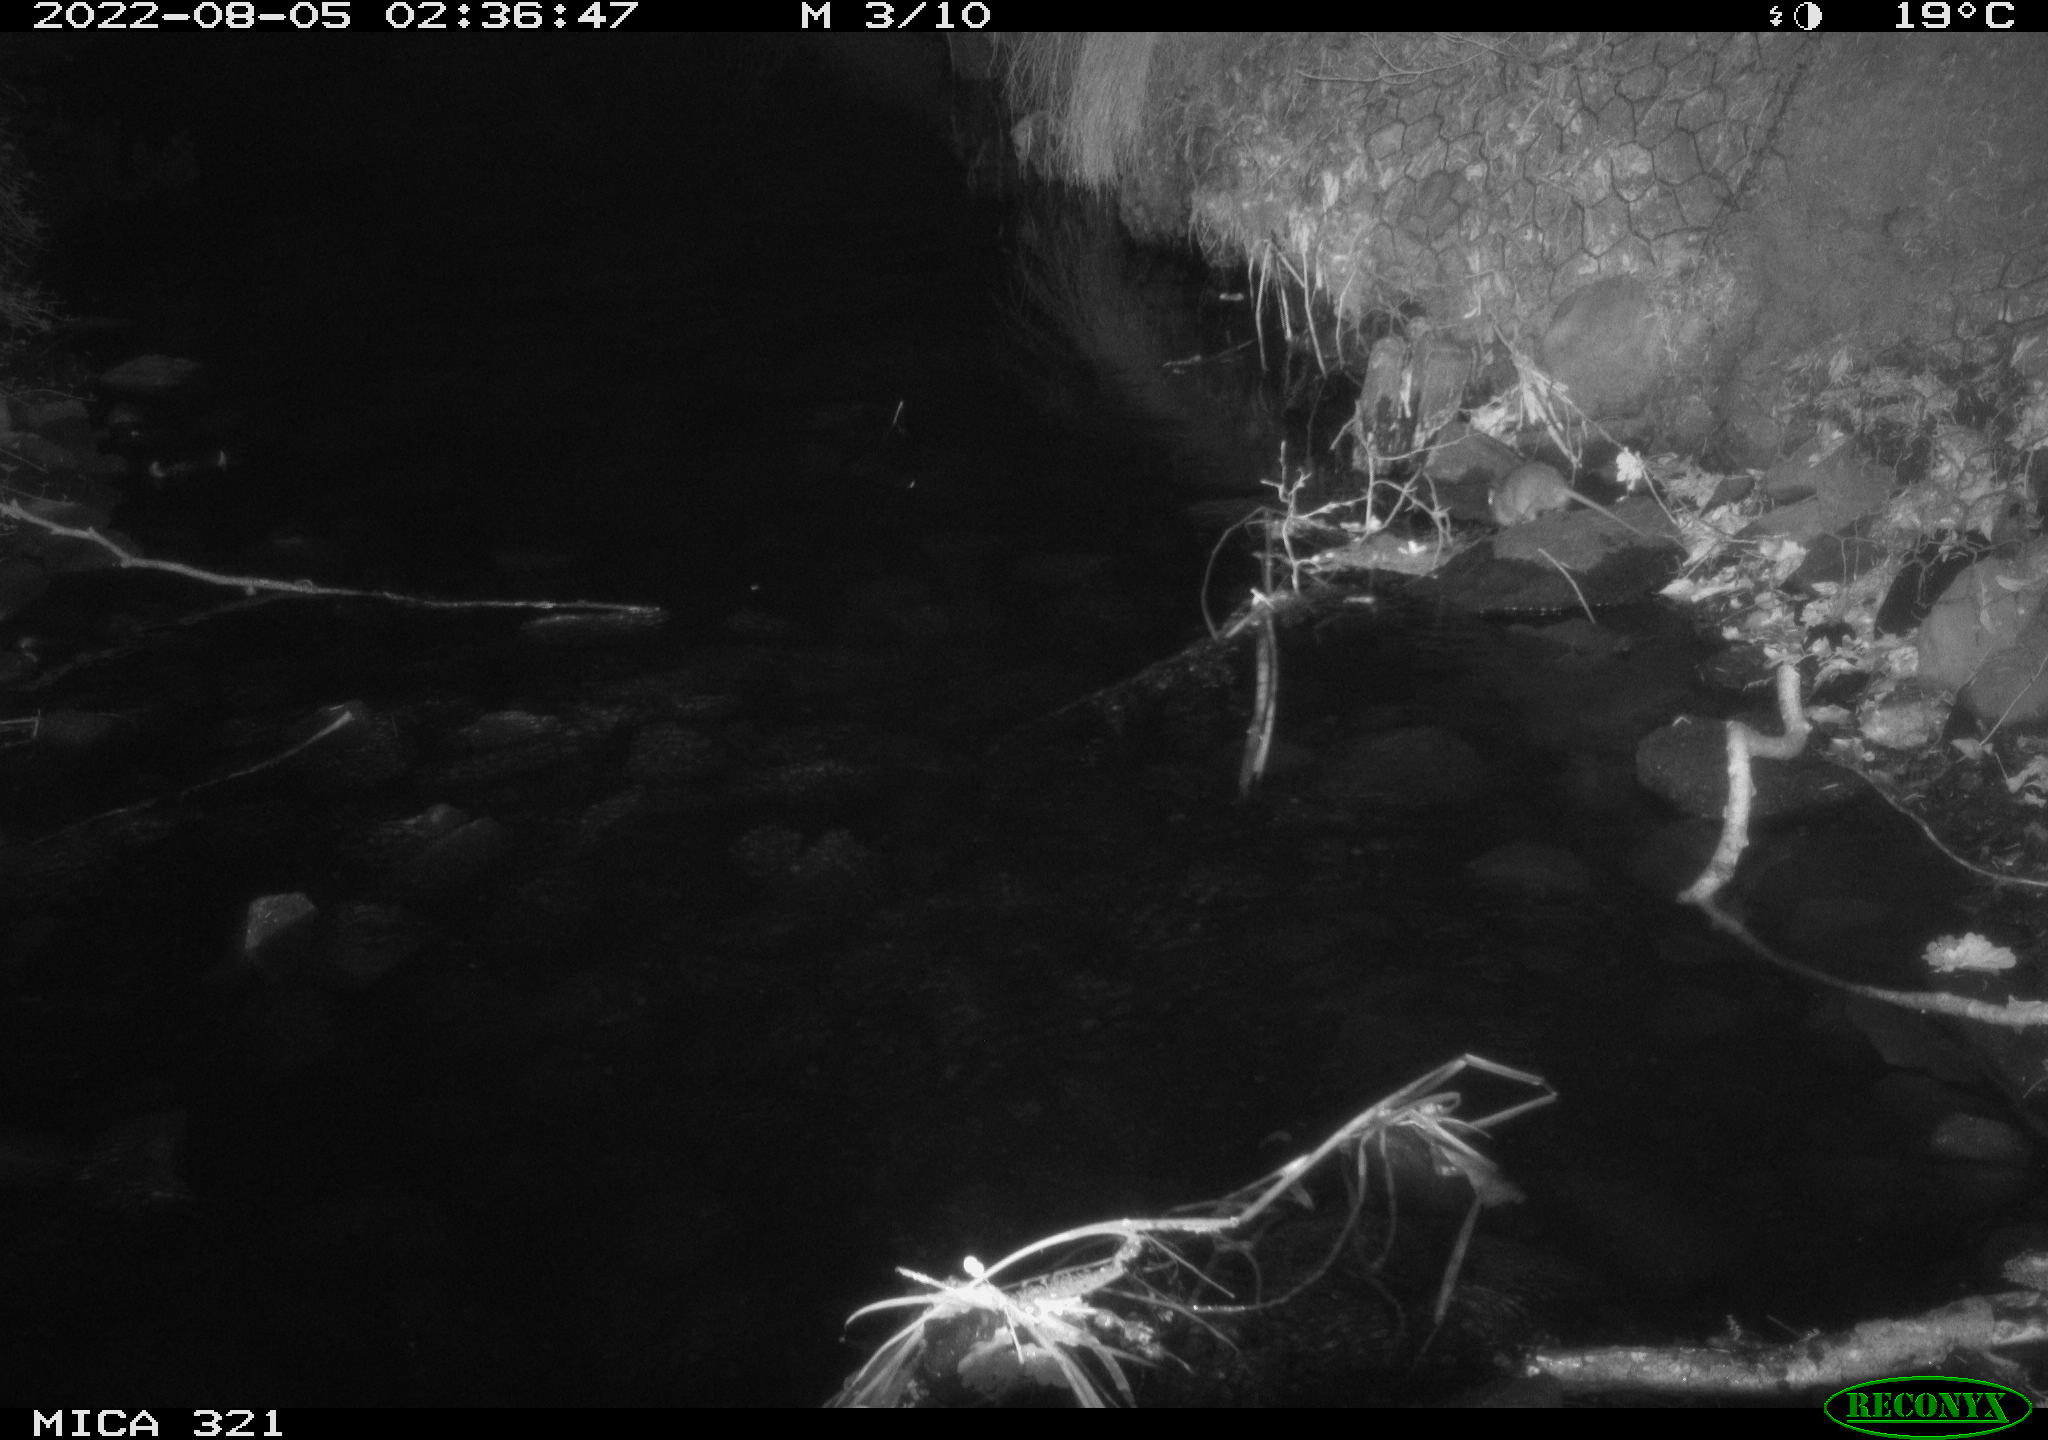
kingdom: Animalia
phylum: Chordata
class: Mammalia
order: Rodentia
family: Muridae
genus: Rattus
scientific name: Rattus norvegicus
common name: Brown rat
